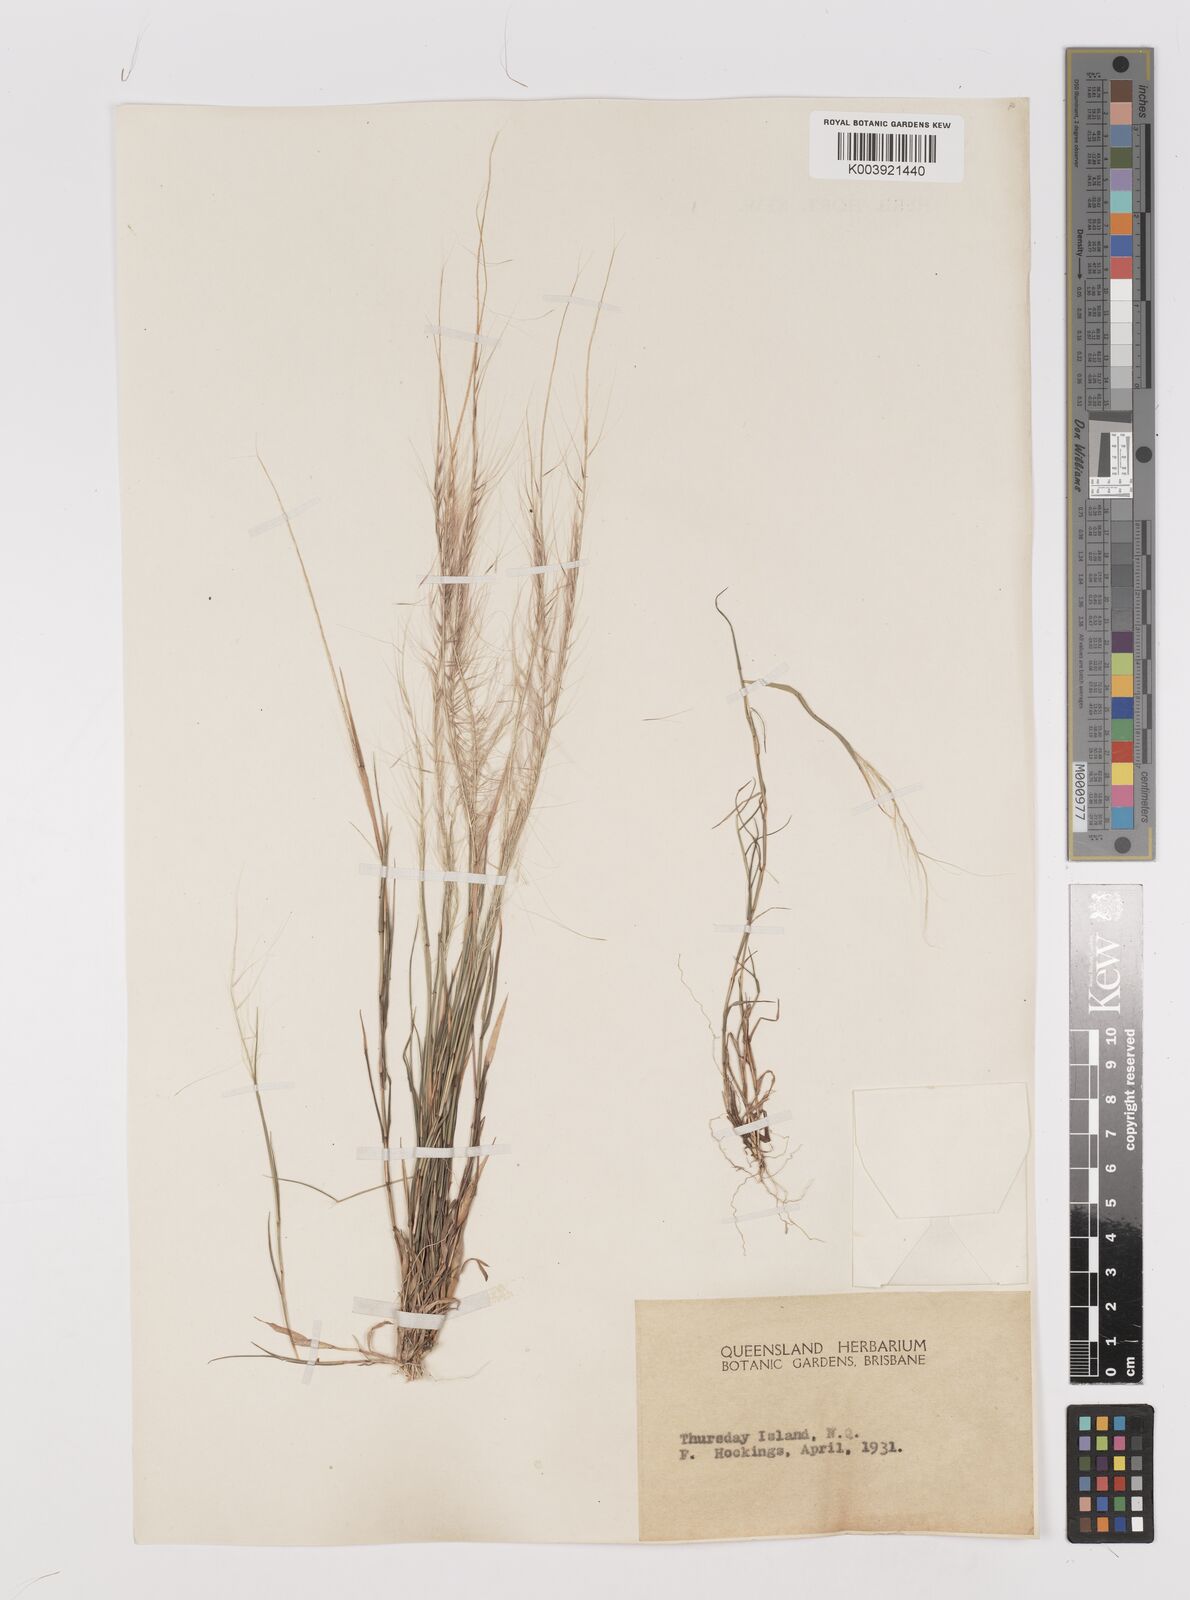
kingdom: Plantae
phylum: Tracheophyta
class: Liliopsida
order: Poales
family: Poaceae
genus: Perotis
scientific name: Perotis rara
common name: Comet grass
